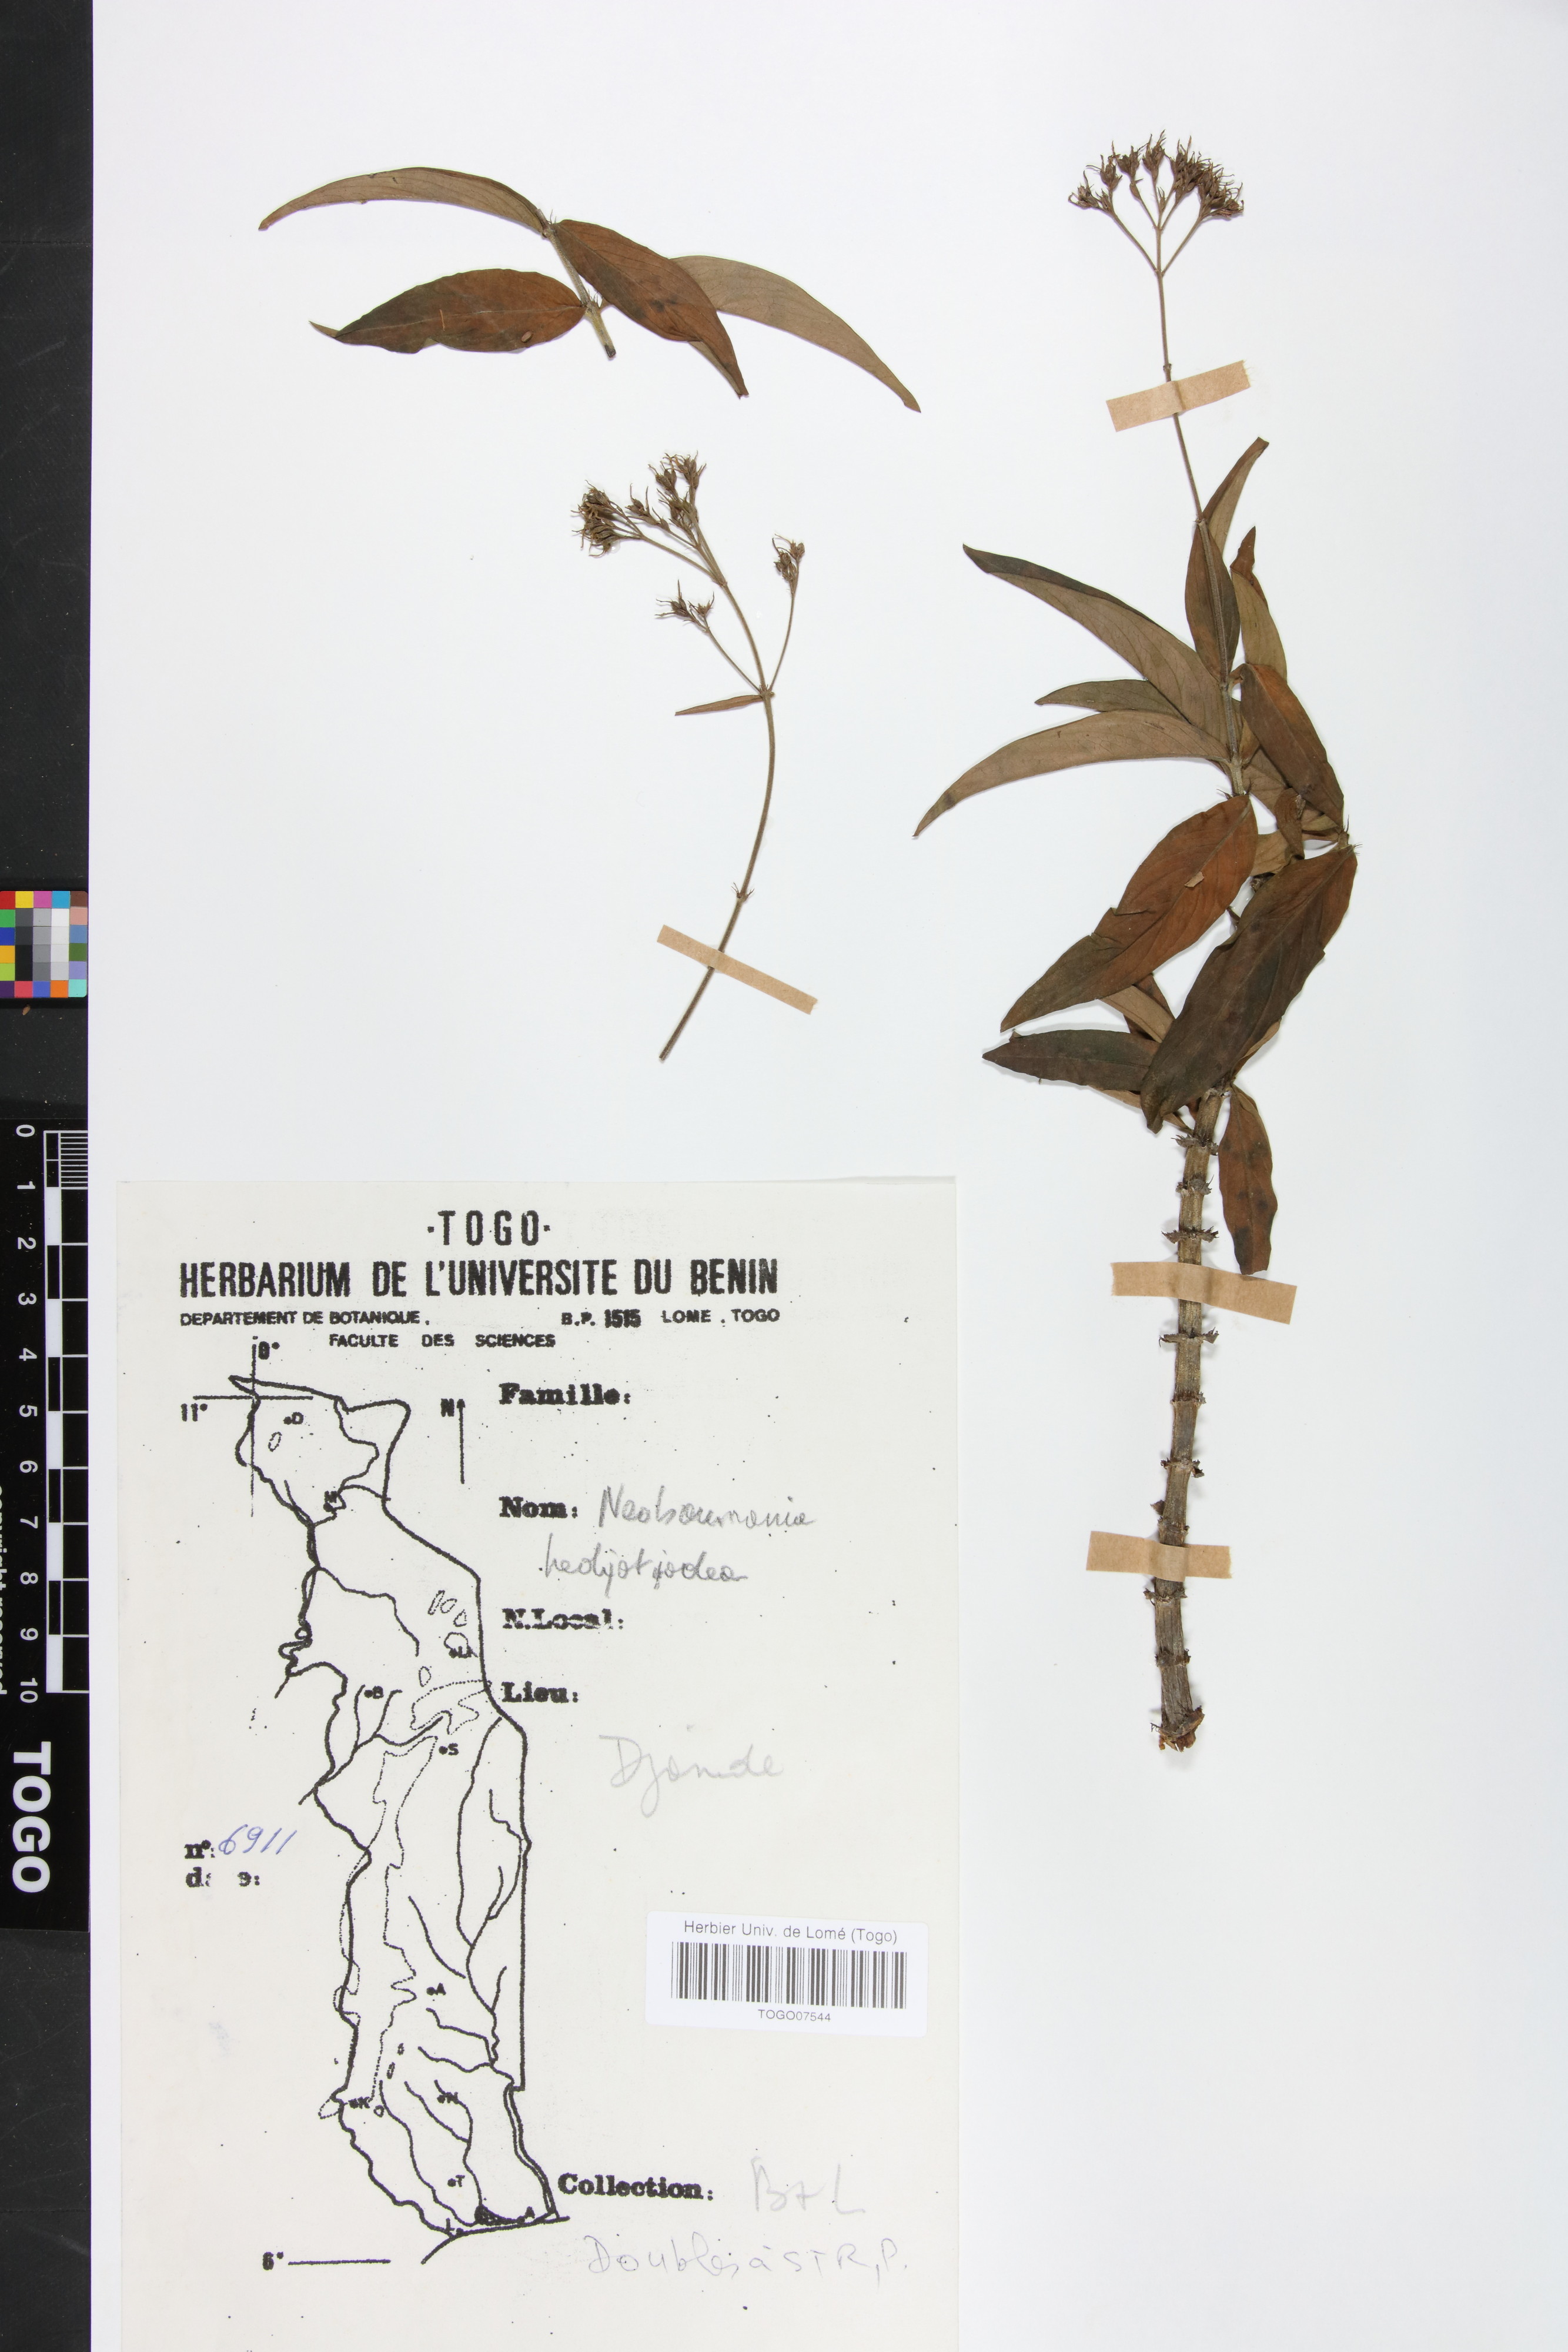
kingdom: Plantae
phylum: Tracheophyta
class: Magnoliopsida
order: Gentianales
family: Rubiaceae
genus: Knoxia
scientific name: Knoxia hedyotoidea
